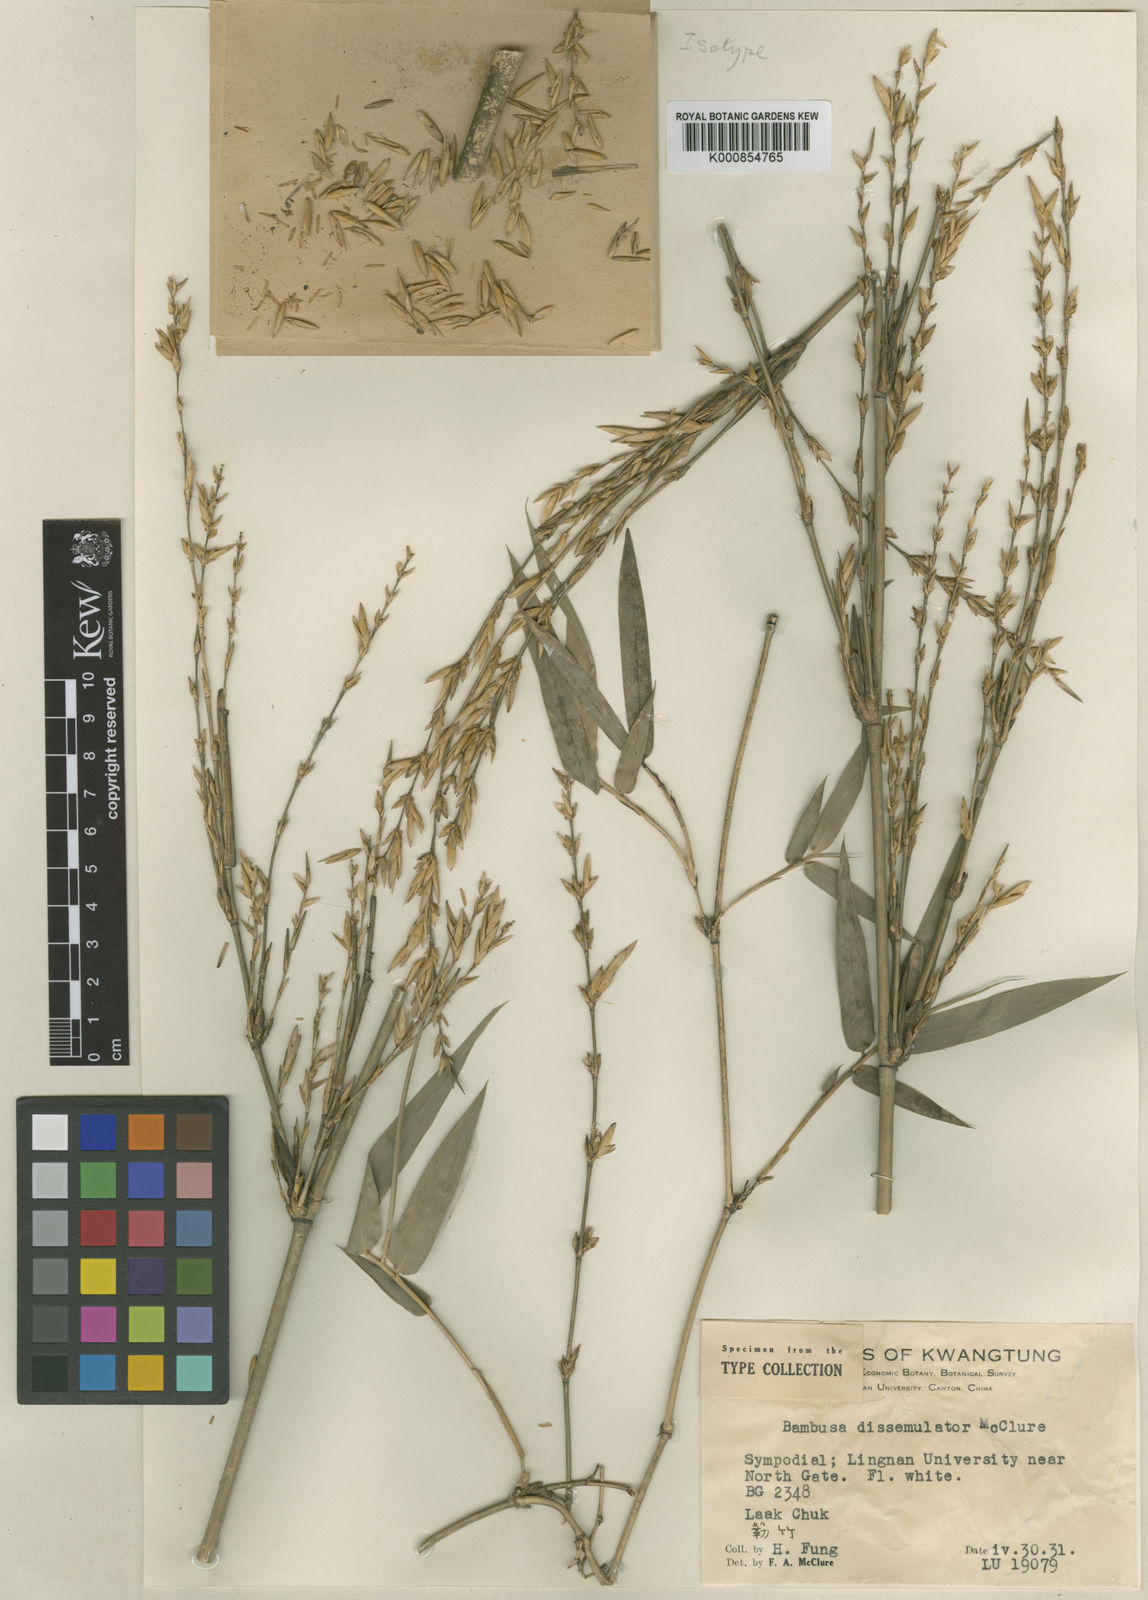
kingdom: Plantae
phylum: Tracheophyta
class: Liliopsida
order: Poales
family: Poaceae
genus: Bambusa
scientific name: Bambusa dissimulator
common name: Muddy bamboo
